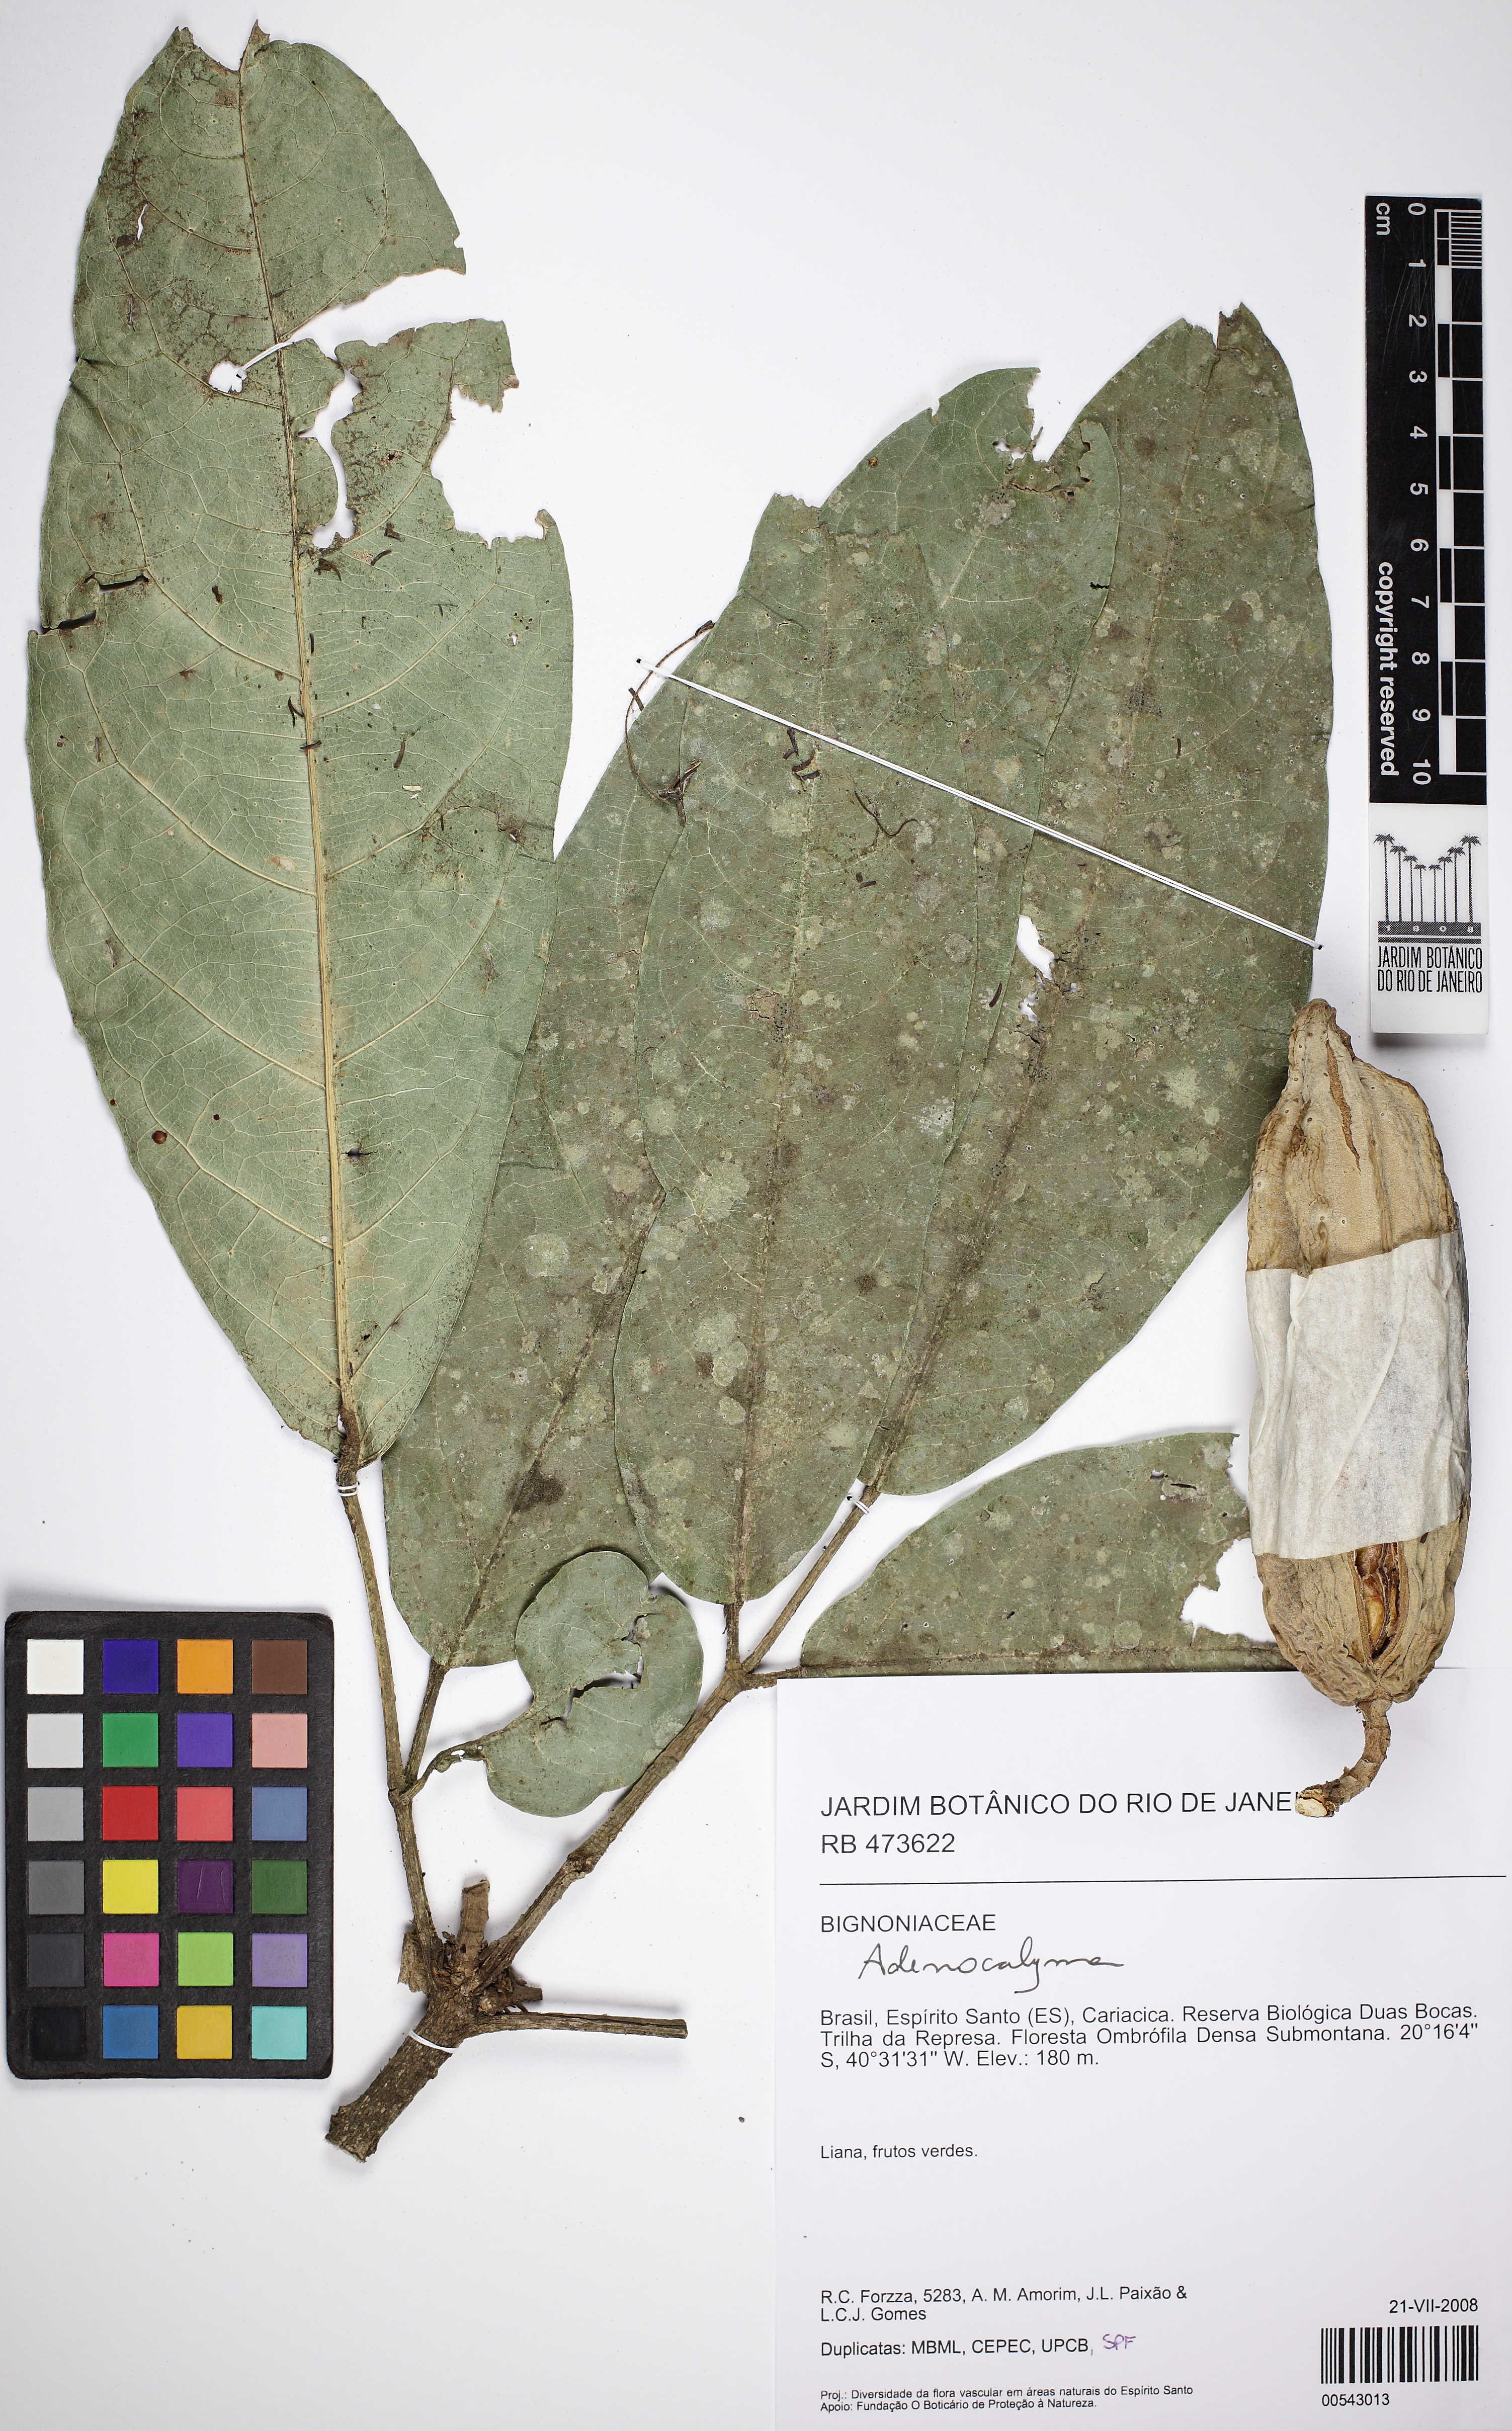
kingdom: Plantae
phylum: Tracheophyta
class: Magnoliopsida
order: Lamiales
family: Bignoniaceae
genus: Adenocalymma
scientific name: Adenocalymma ternatum
